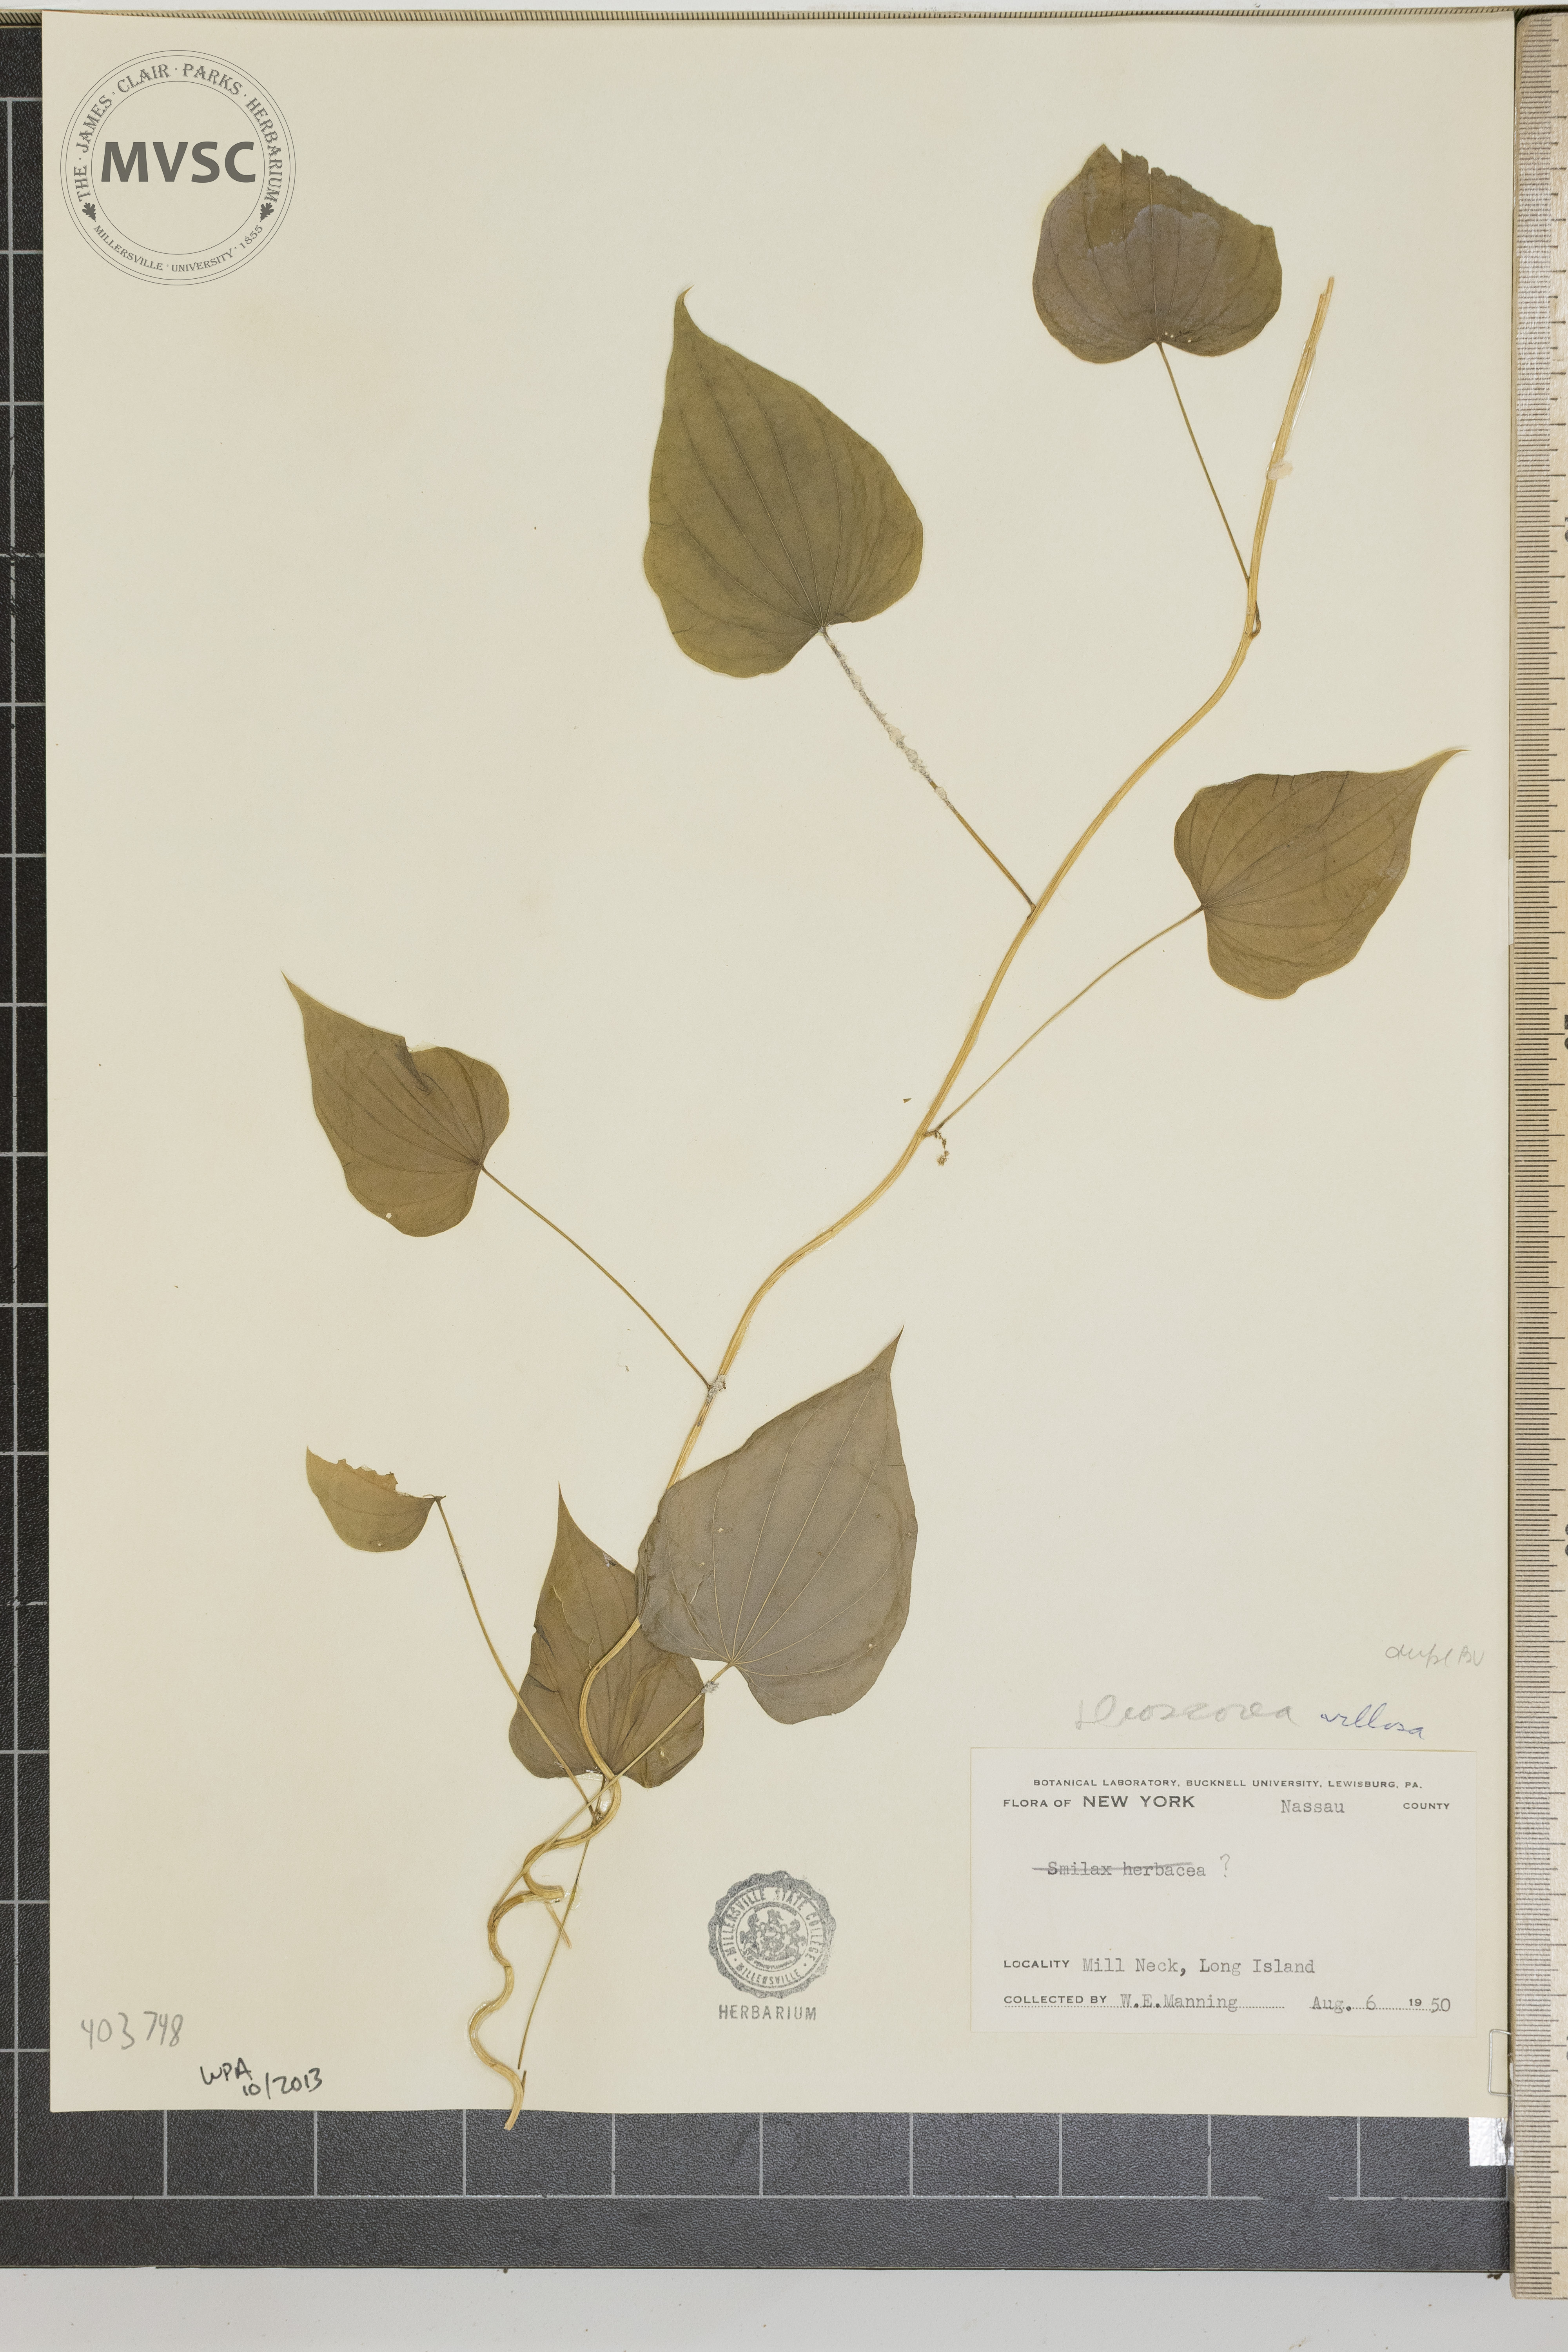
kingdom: Plantae
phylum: Tracheophyta
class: Liliopsida
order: Dioscoreales
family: Dioscoreaceae
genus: Dioscorea
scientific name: Dioscorea villosa
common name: Wild Yam
